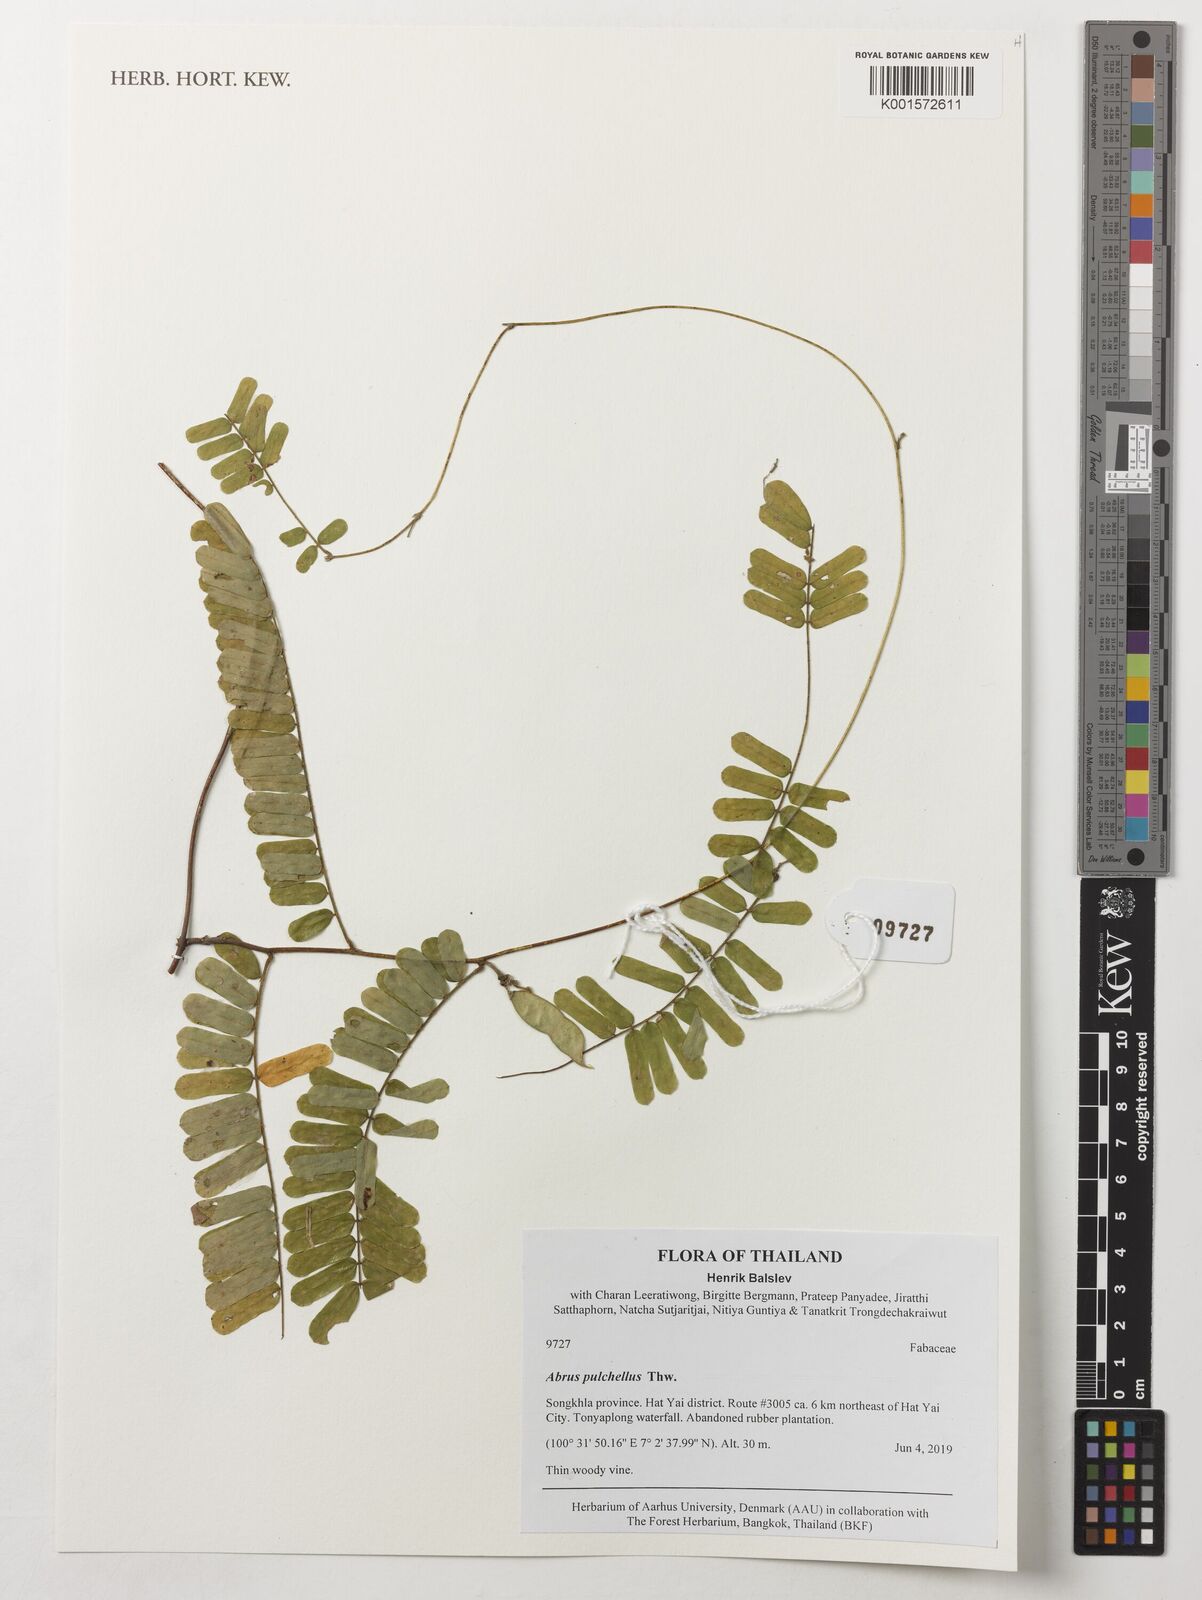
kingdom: Plantae
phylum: Tracheophyta
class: Magnoliopsida
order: Fabales
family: Fabaceae
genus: Abrus
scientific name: Abrus melanospermus
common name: Licorice-root
